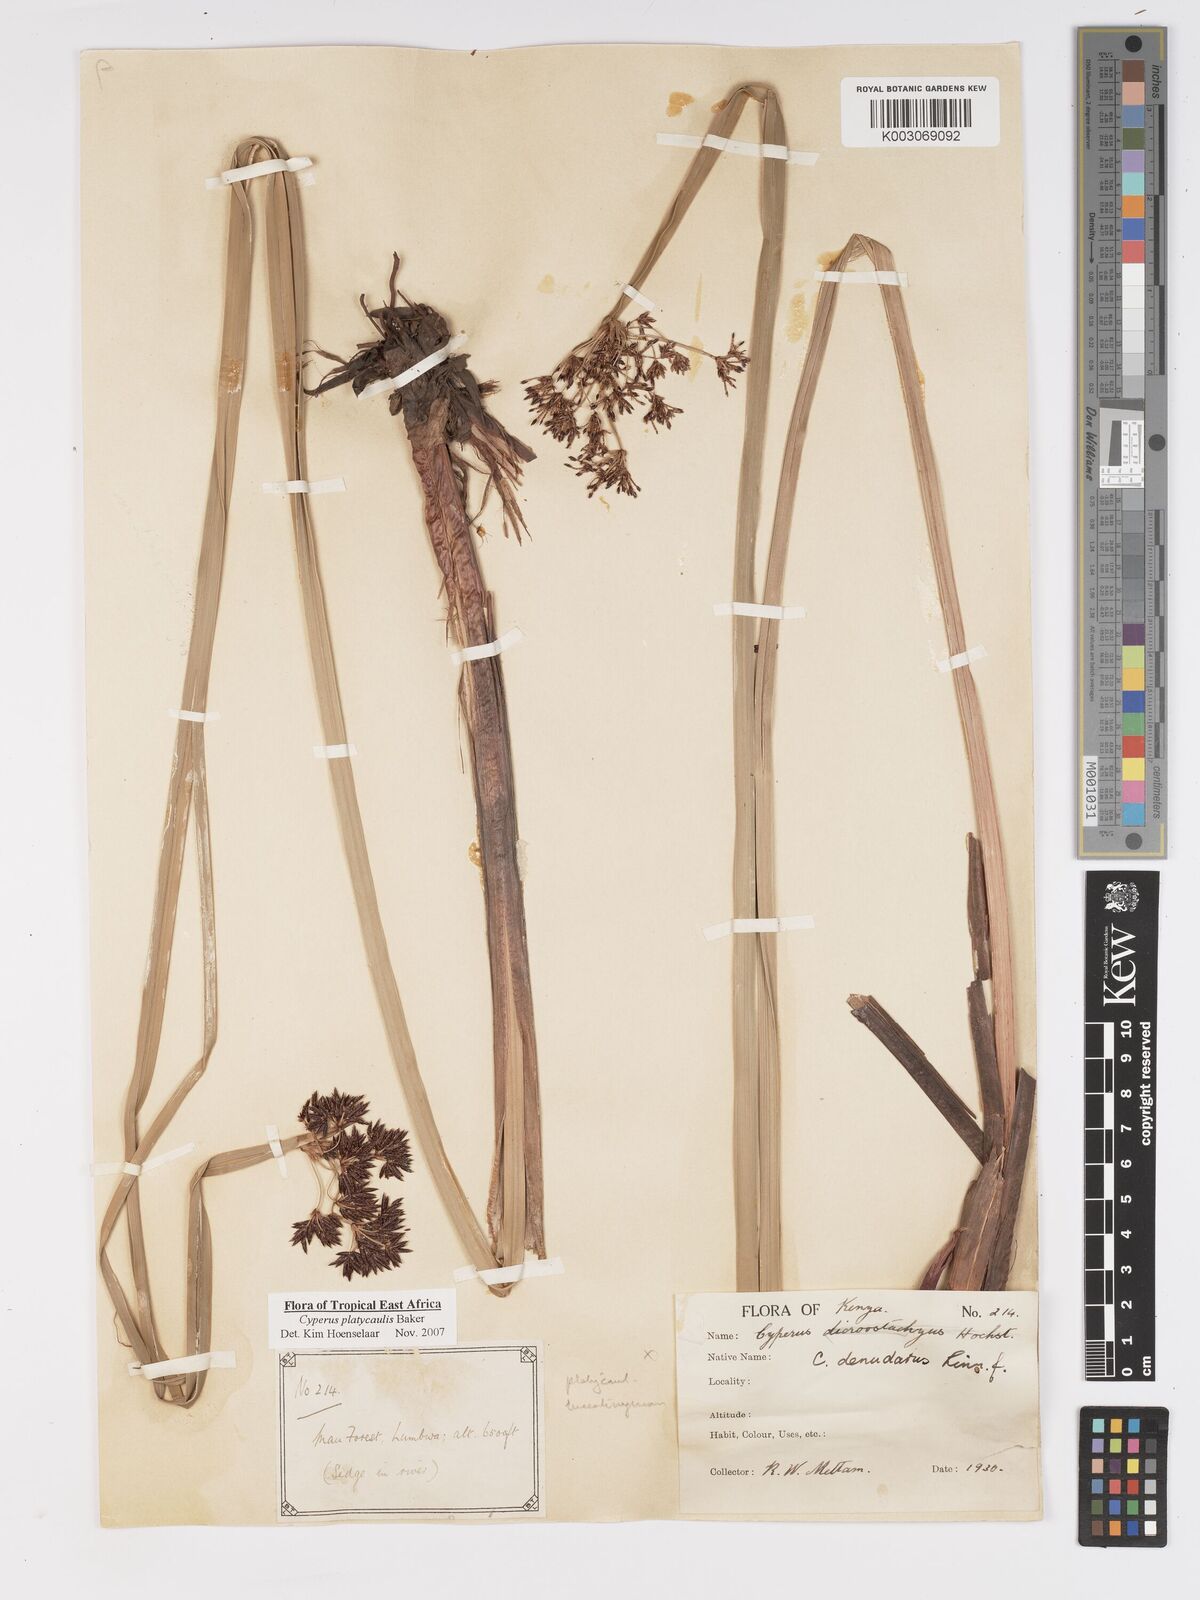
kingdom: Plantae
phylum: Tracheophyta
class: Liliopsida
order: Poales
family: Cyperaceae
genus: Cyperus
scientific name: Cyperus platycaulis
